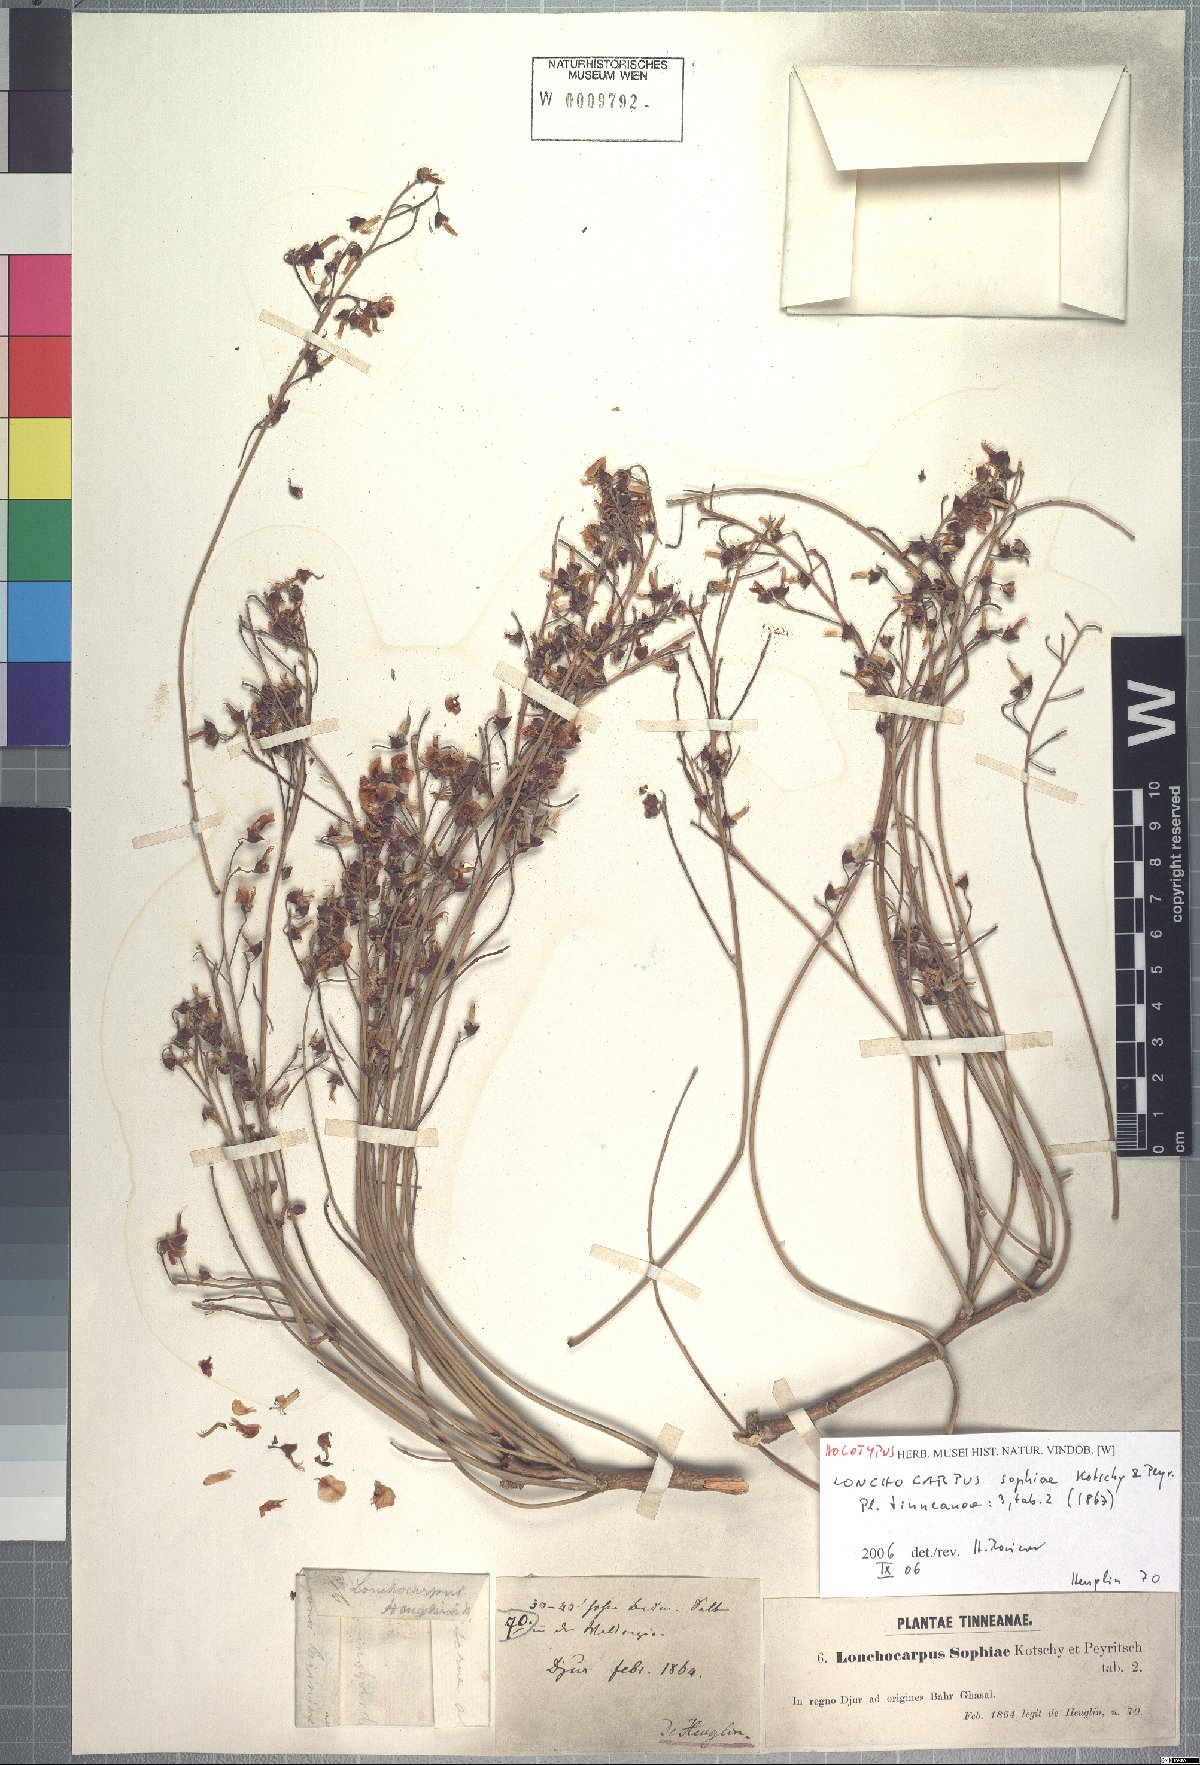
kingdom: Plantae
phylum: Tracheophyta
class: Magnoliopsida
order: Fabales
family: Fabaceae
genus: Philenoptera
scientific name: Philenoptera laxiflora
